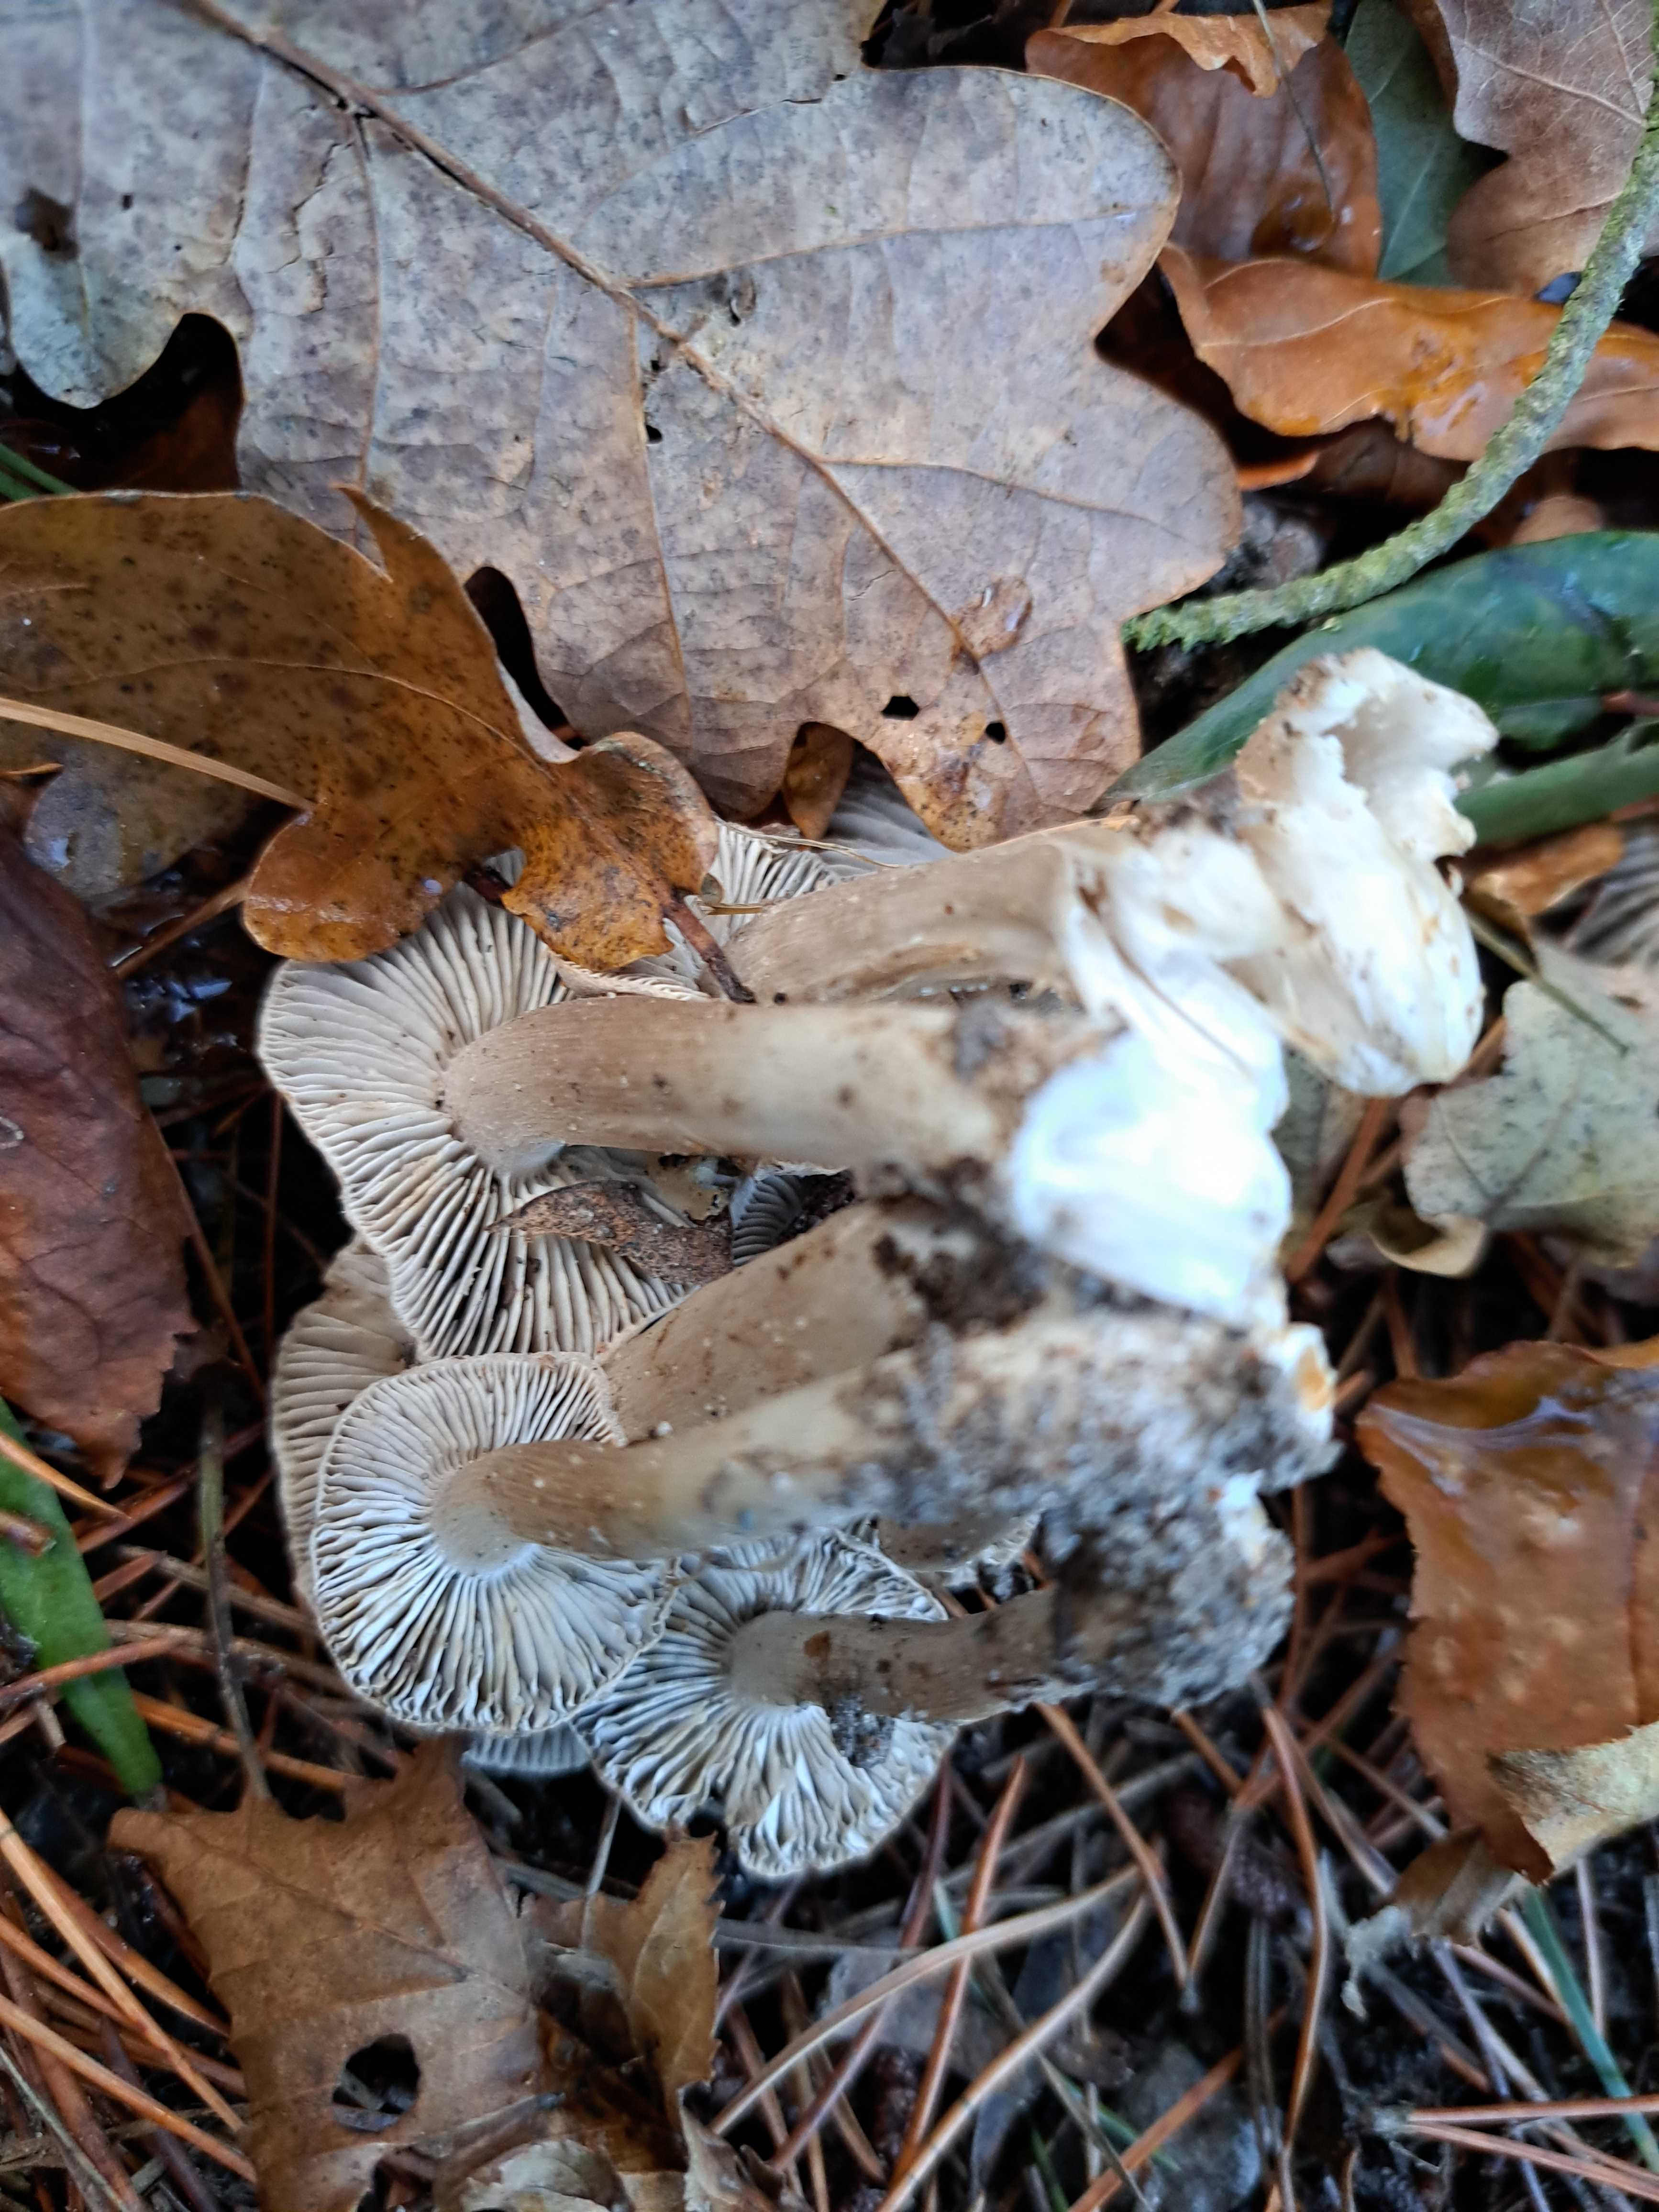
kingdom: Fungi
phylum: Basidiomycota
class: Agaricomycetes
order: Agaricales
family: Tricholomataceae
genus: Tricholoma
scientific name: Tricholoma terreum
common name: jordfarvet ridderhat
